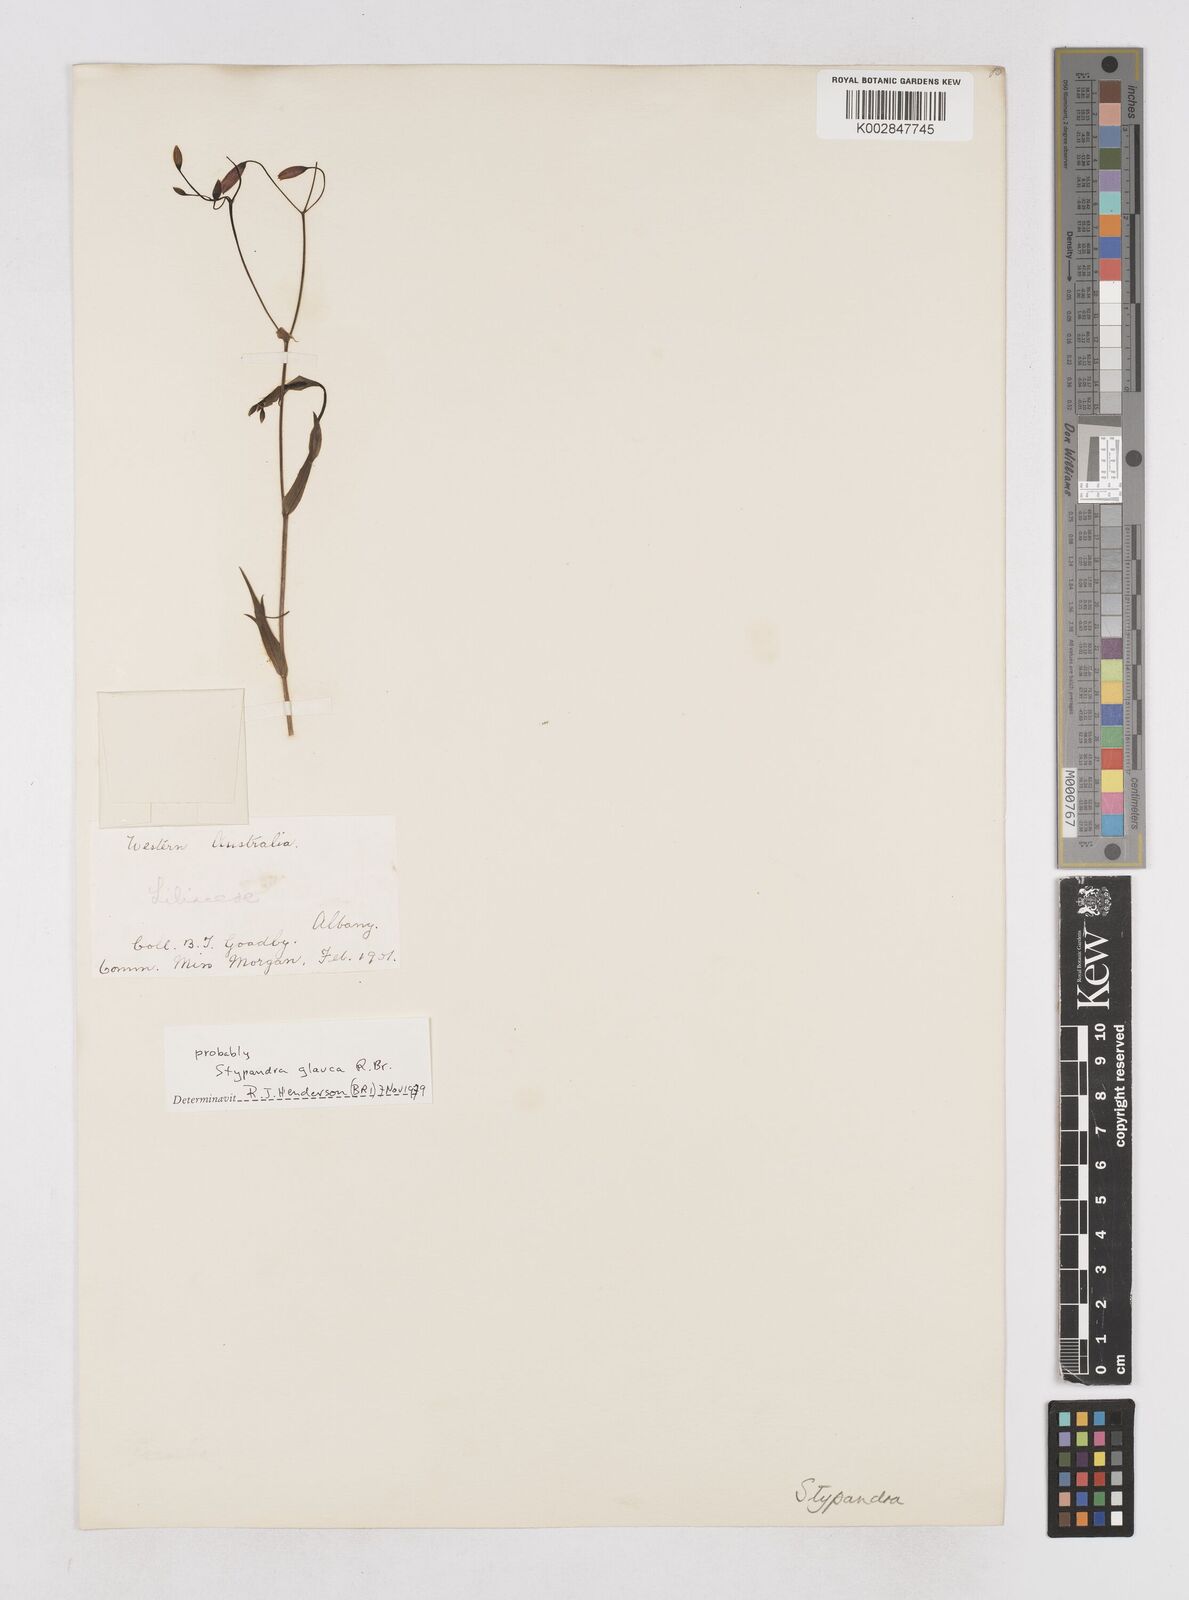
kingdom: Plantae
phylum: Tracheophyta
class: Liliopsida
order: Asparagales
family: Asphodelaceae
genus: Stypandra
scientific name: Stypandra glauca
